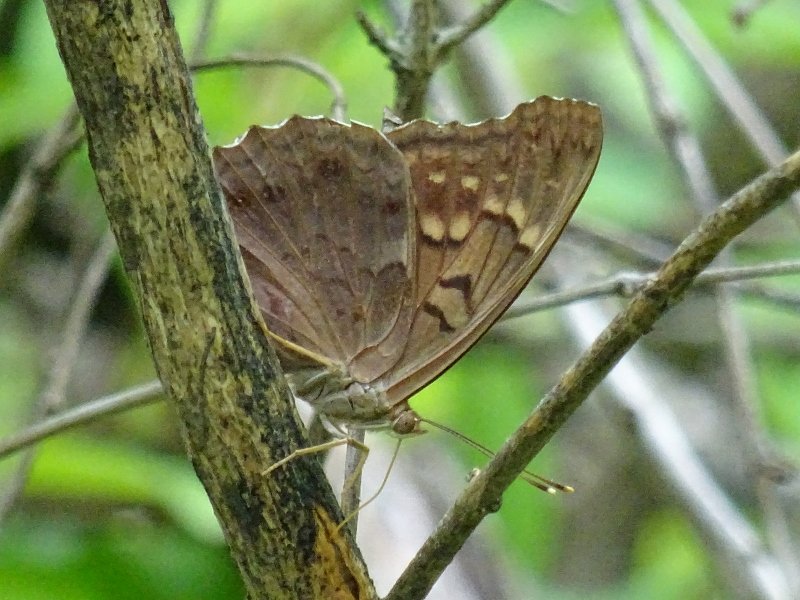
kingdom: Animalia
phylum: Arthropoda
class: Insecta
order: Lepidoptera
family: Nymphalidae
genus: Asterocampa
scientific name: Asterocampa clyton
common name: Tawny Emperor
